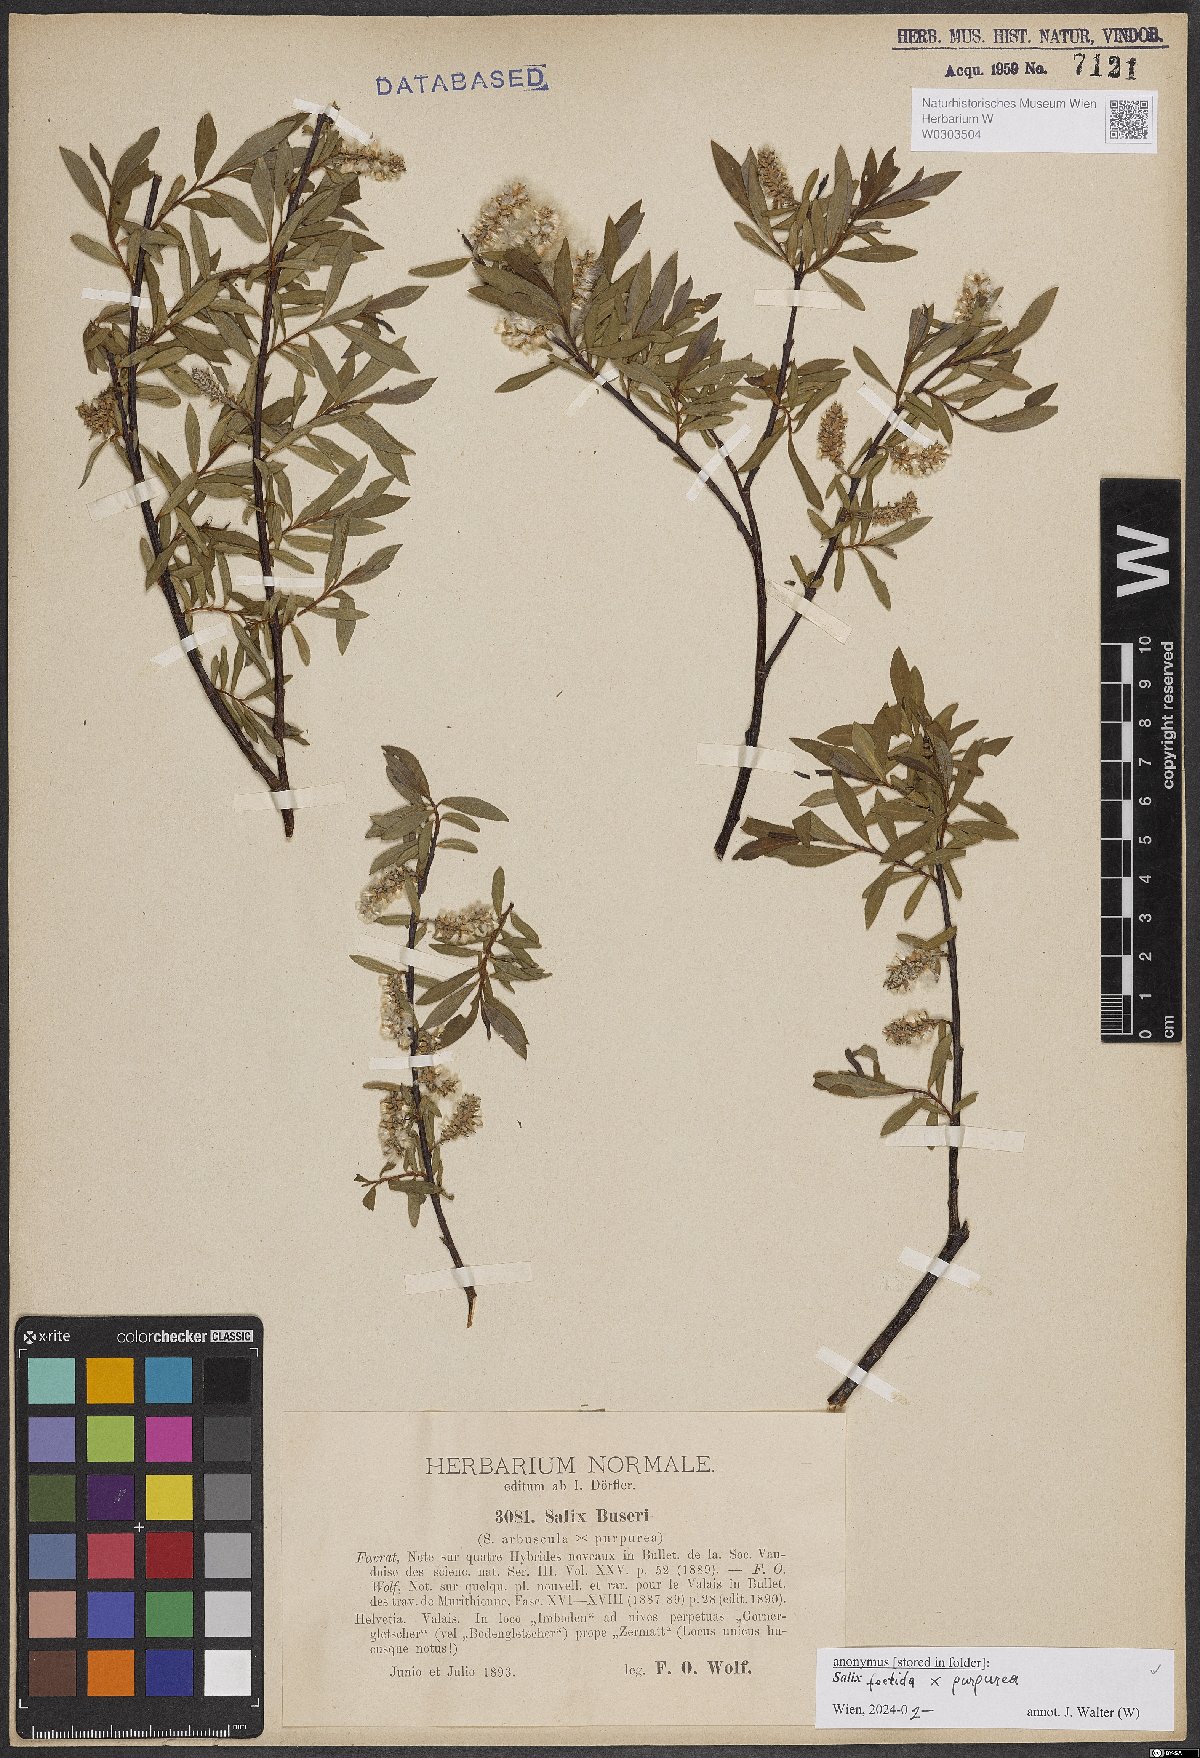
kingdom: Plantae
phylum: Tracheophyta
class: Magnoliopsida
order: Malpighiales
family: Salicaceae
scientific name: Salicaceae
